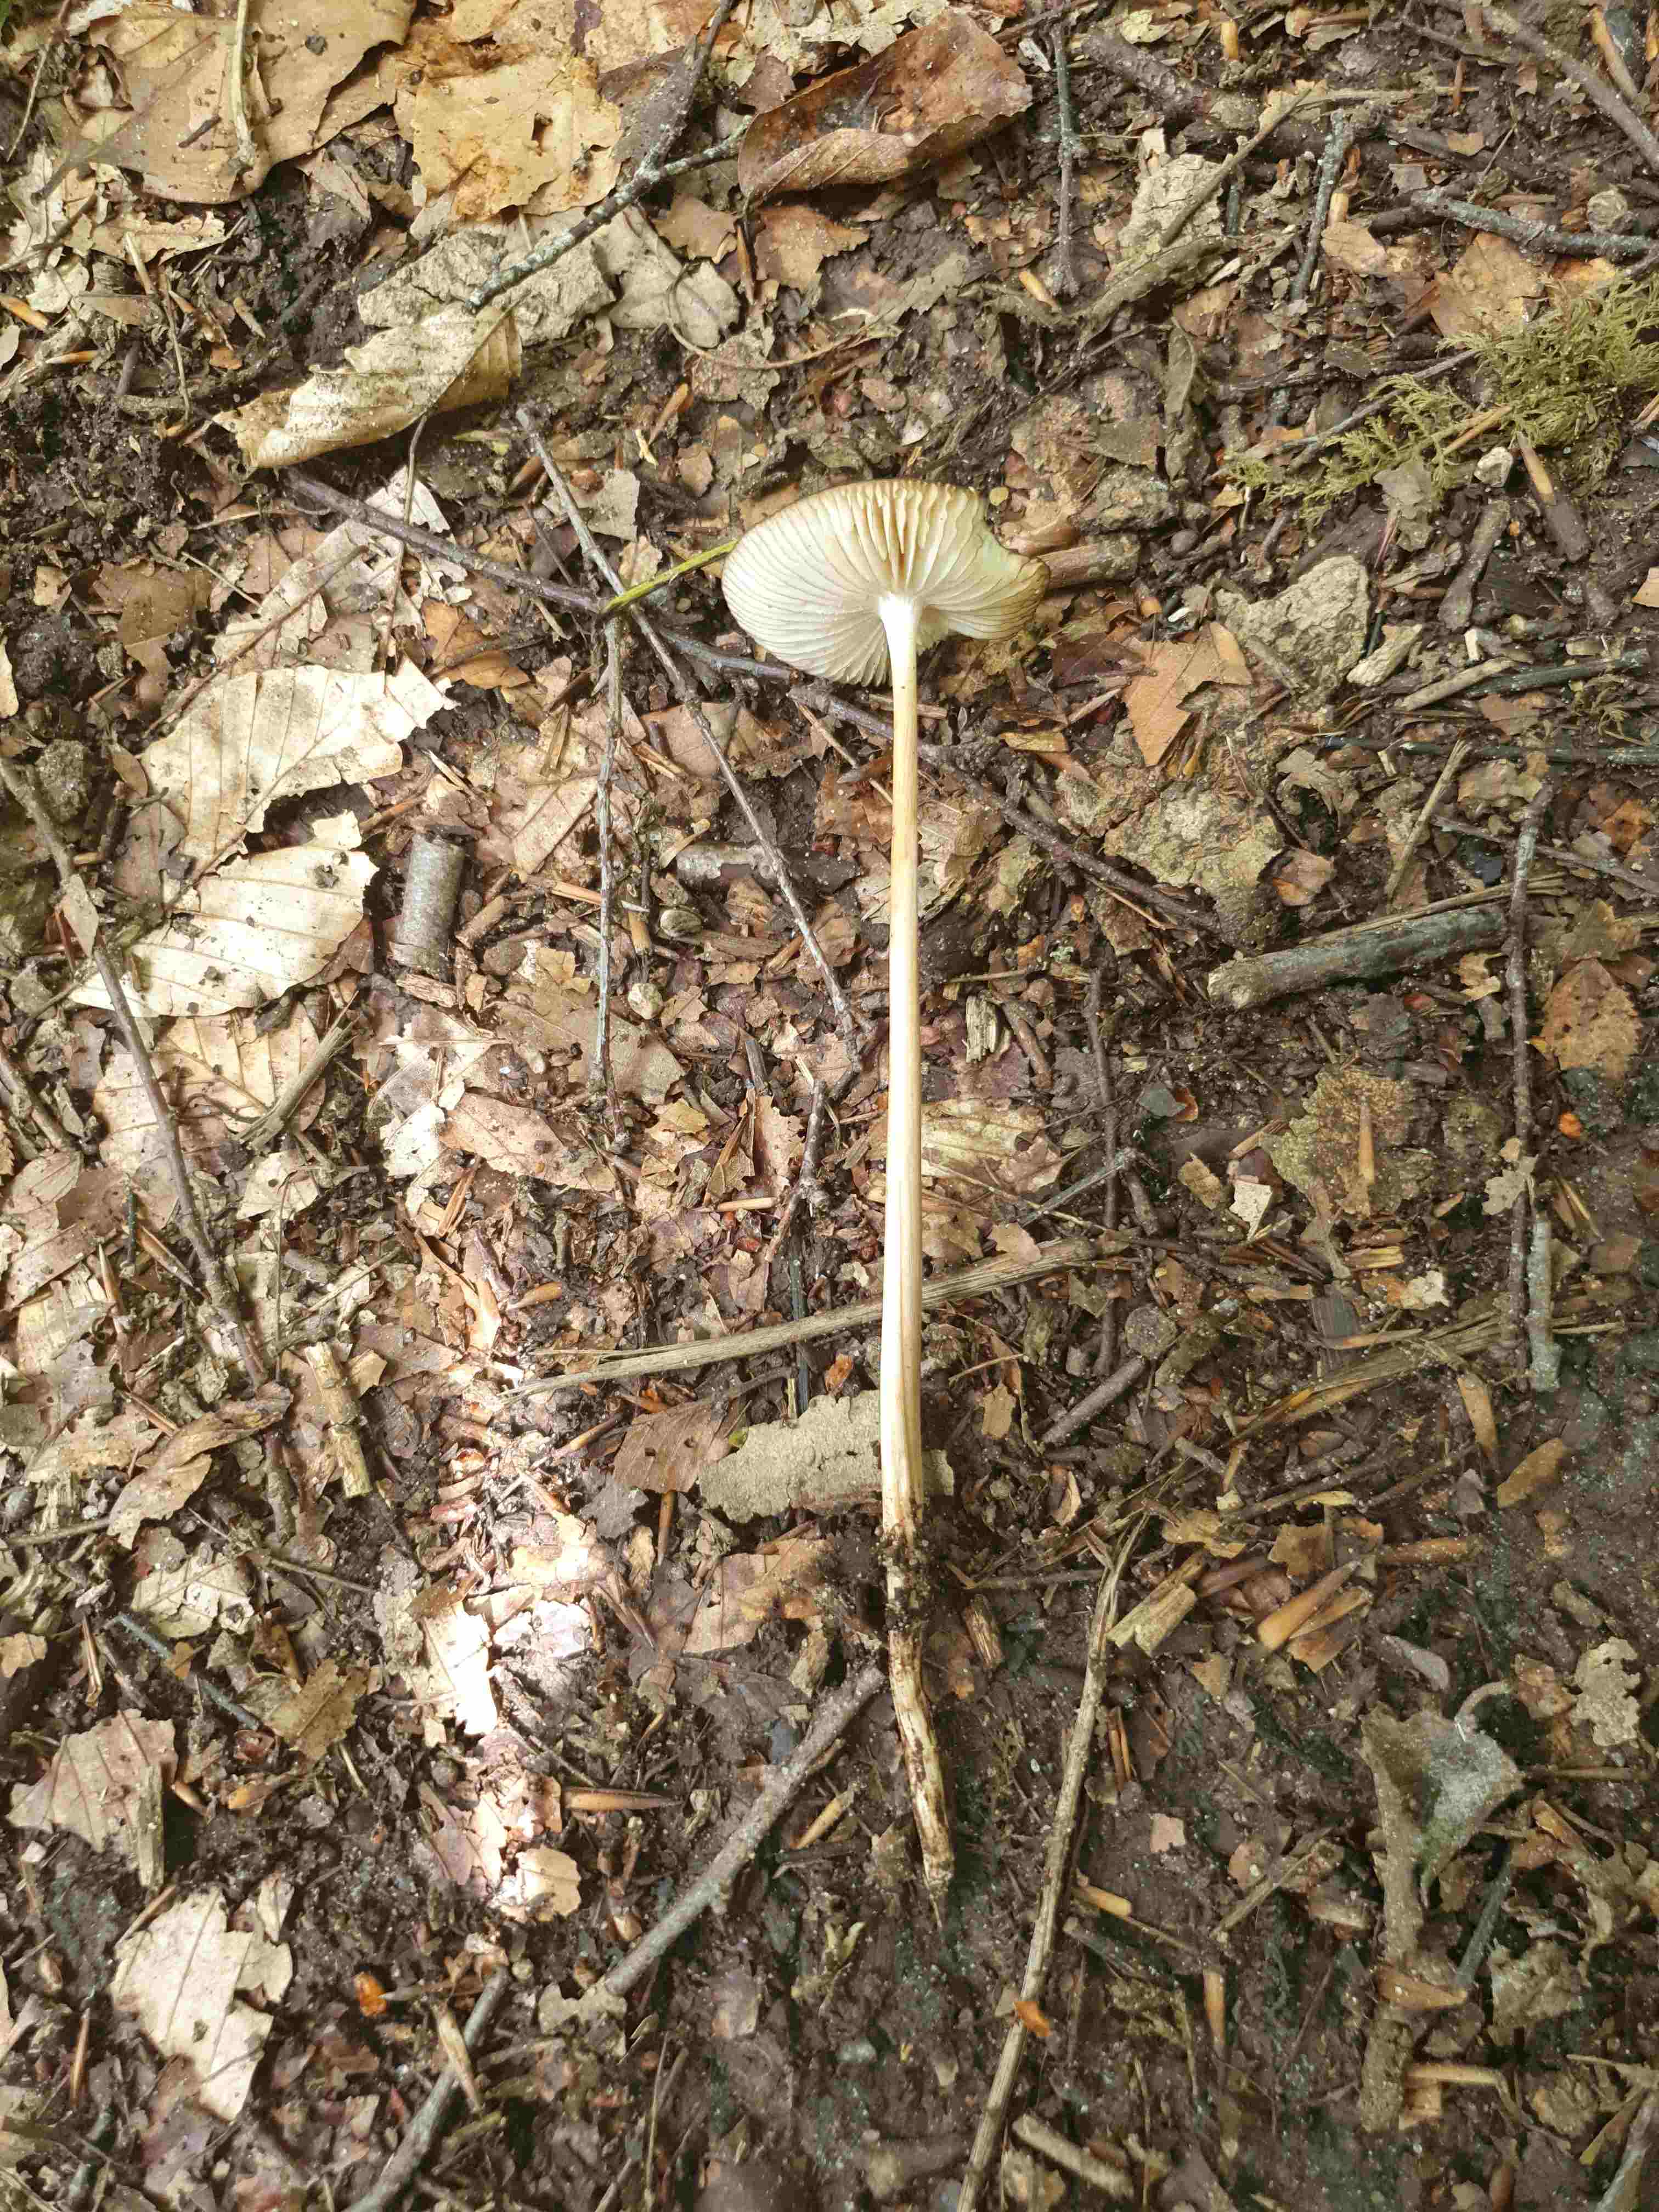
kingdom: Fungi
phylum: Basidiomycota
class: Agaricomycetes
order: Agaricales
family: Physalacriaceae
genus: Hymenopellis
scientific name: Hymenopellis radicata
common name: almindelig pælerodshat
